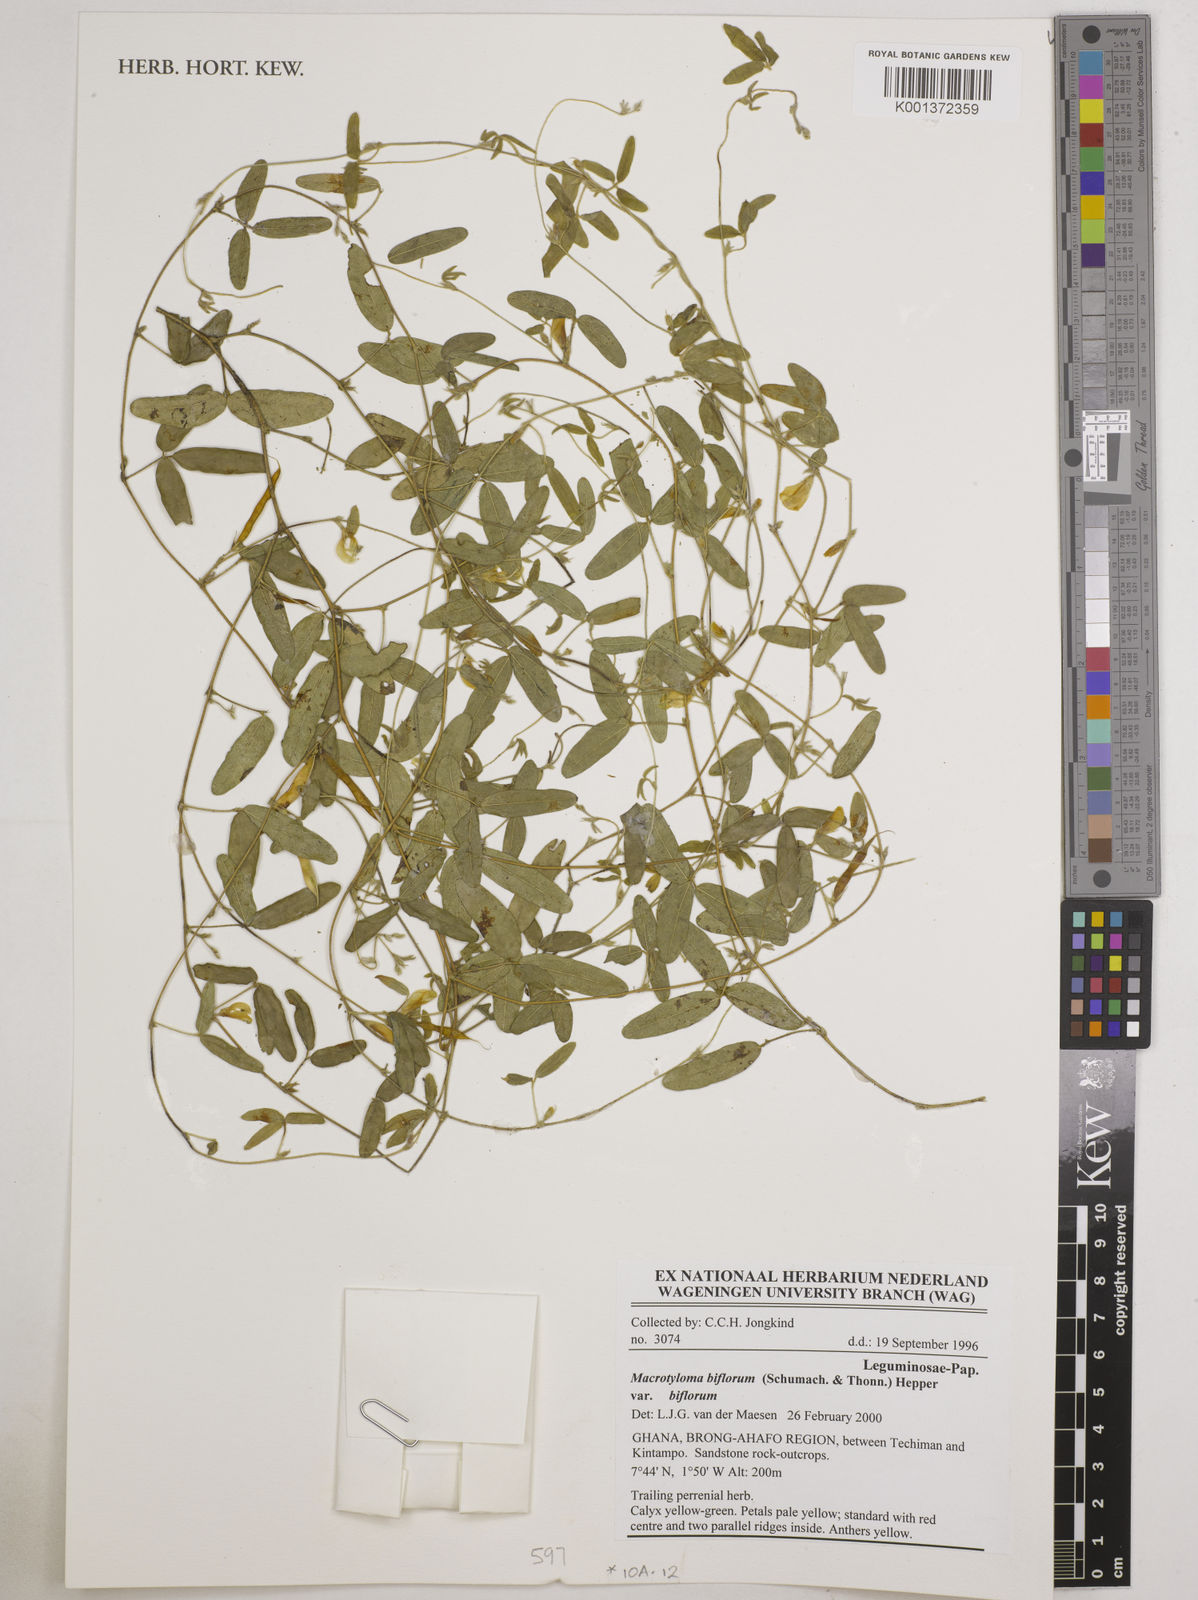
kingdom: Plantae
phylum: Tracheophyta
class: Magnoliopsida
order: Fabales
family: Fabaceae
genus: Macrotyloma
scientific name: Macrotyloma biflorum
